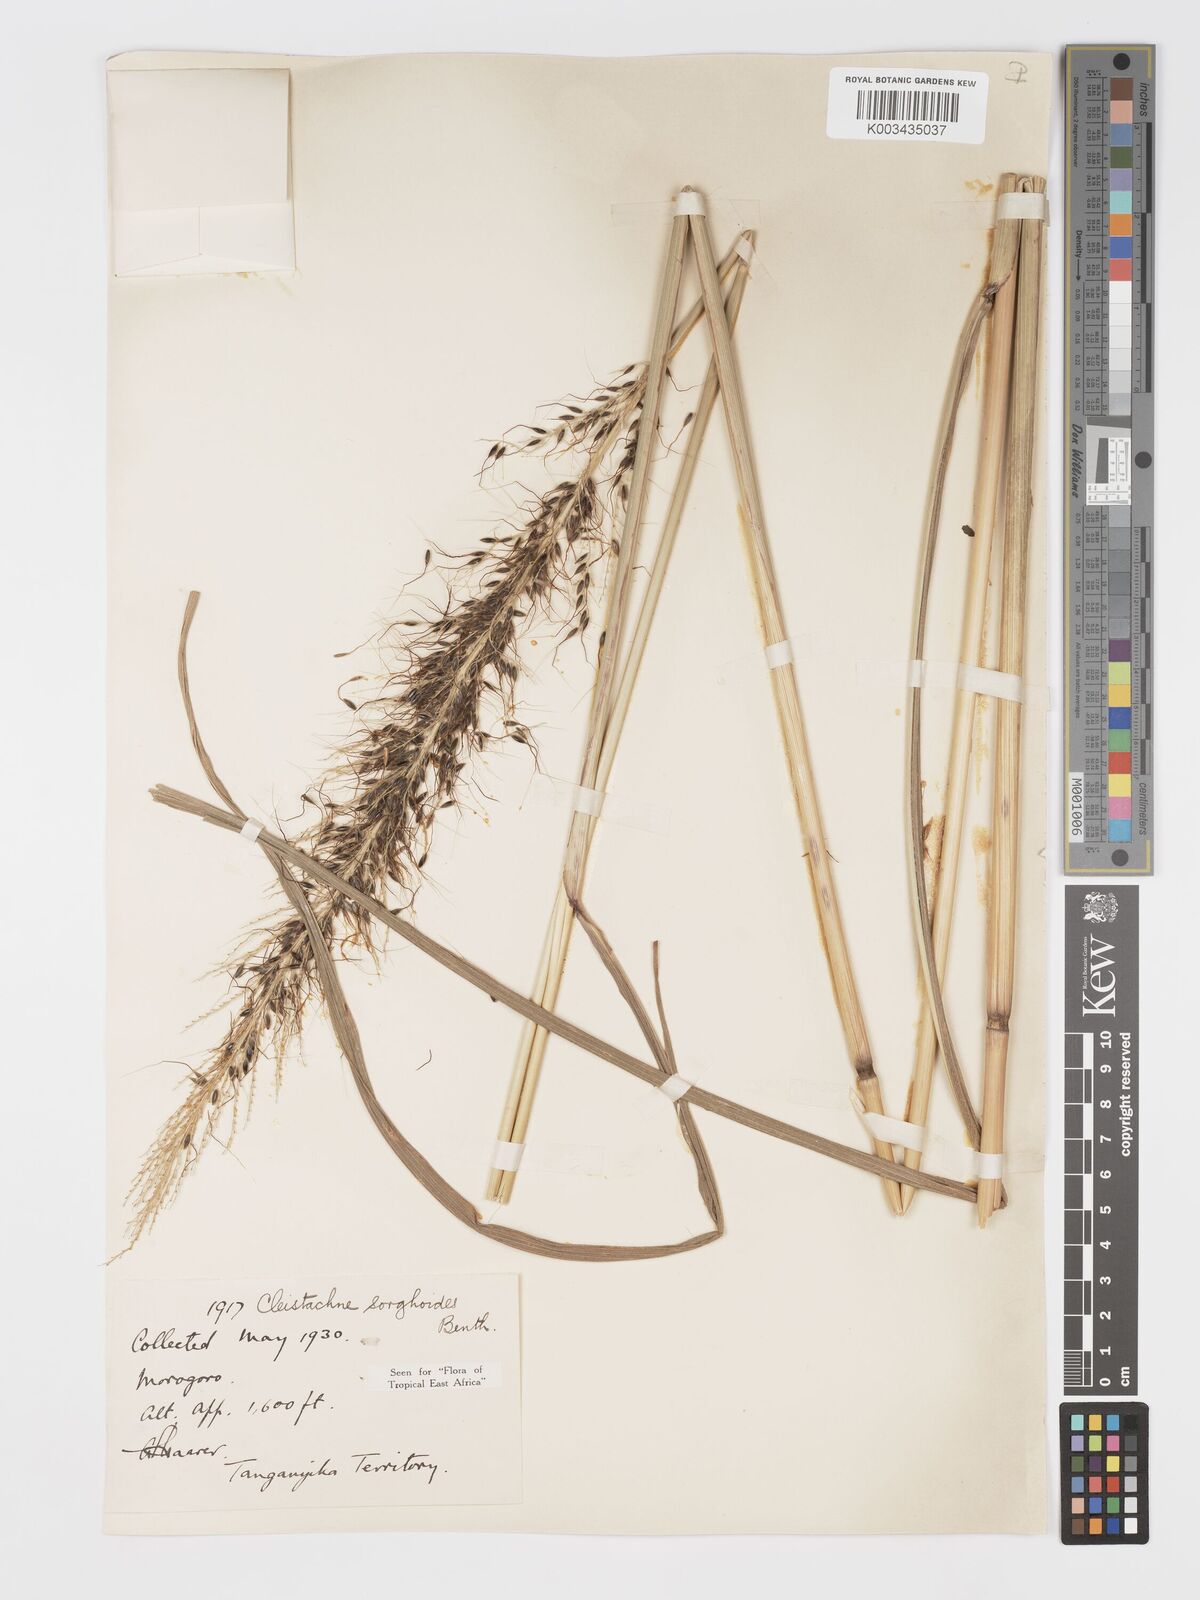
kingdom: Plantae
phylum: Tracheophyta
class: Liliopsida
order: Poales
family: Poaceae
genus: Cleistachne
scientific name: Cleistachne sorghoides
